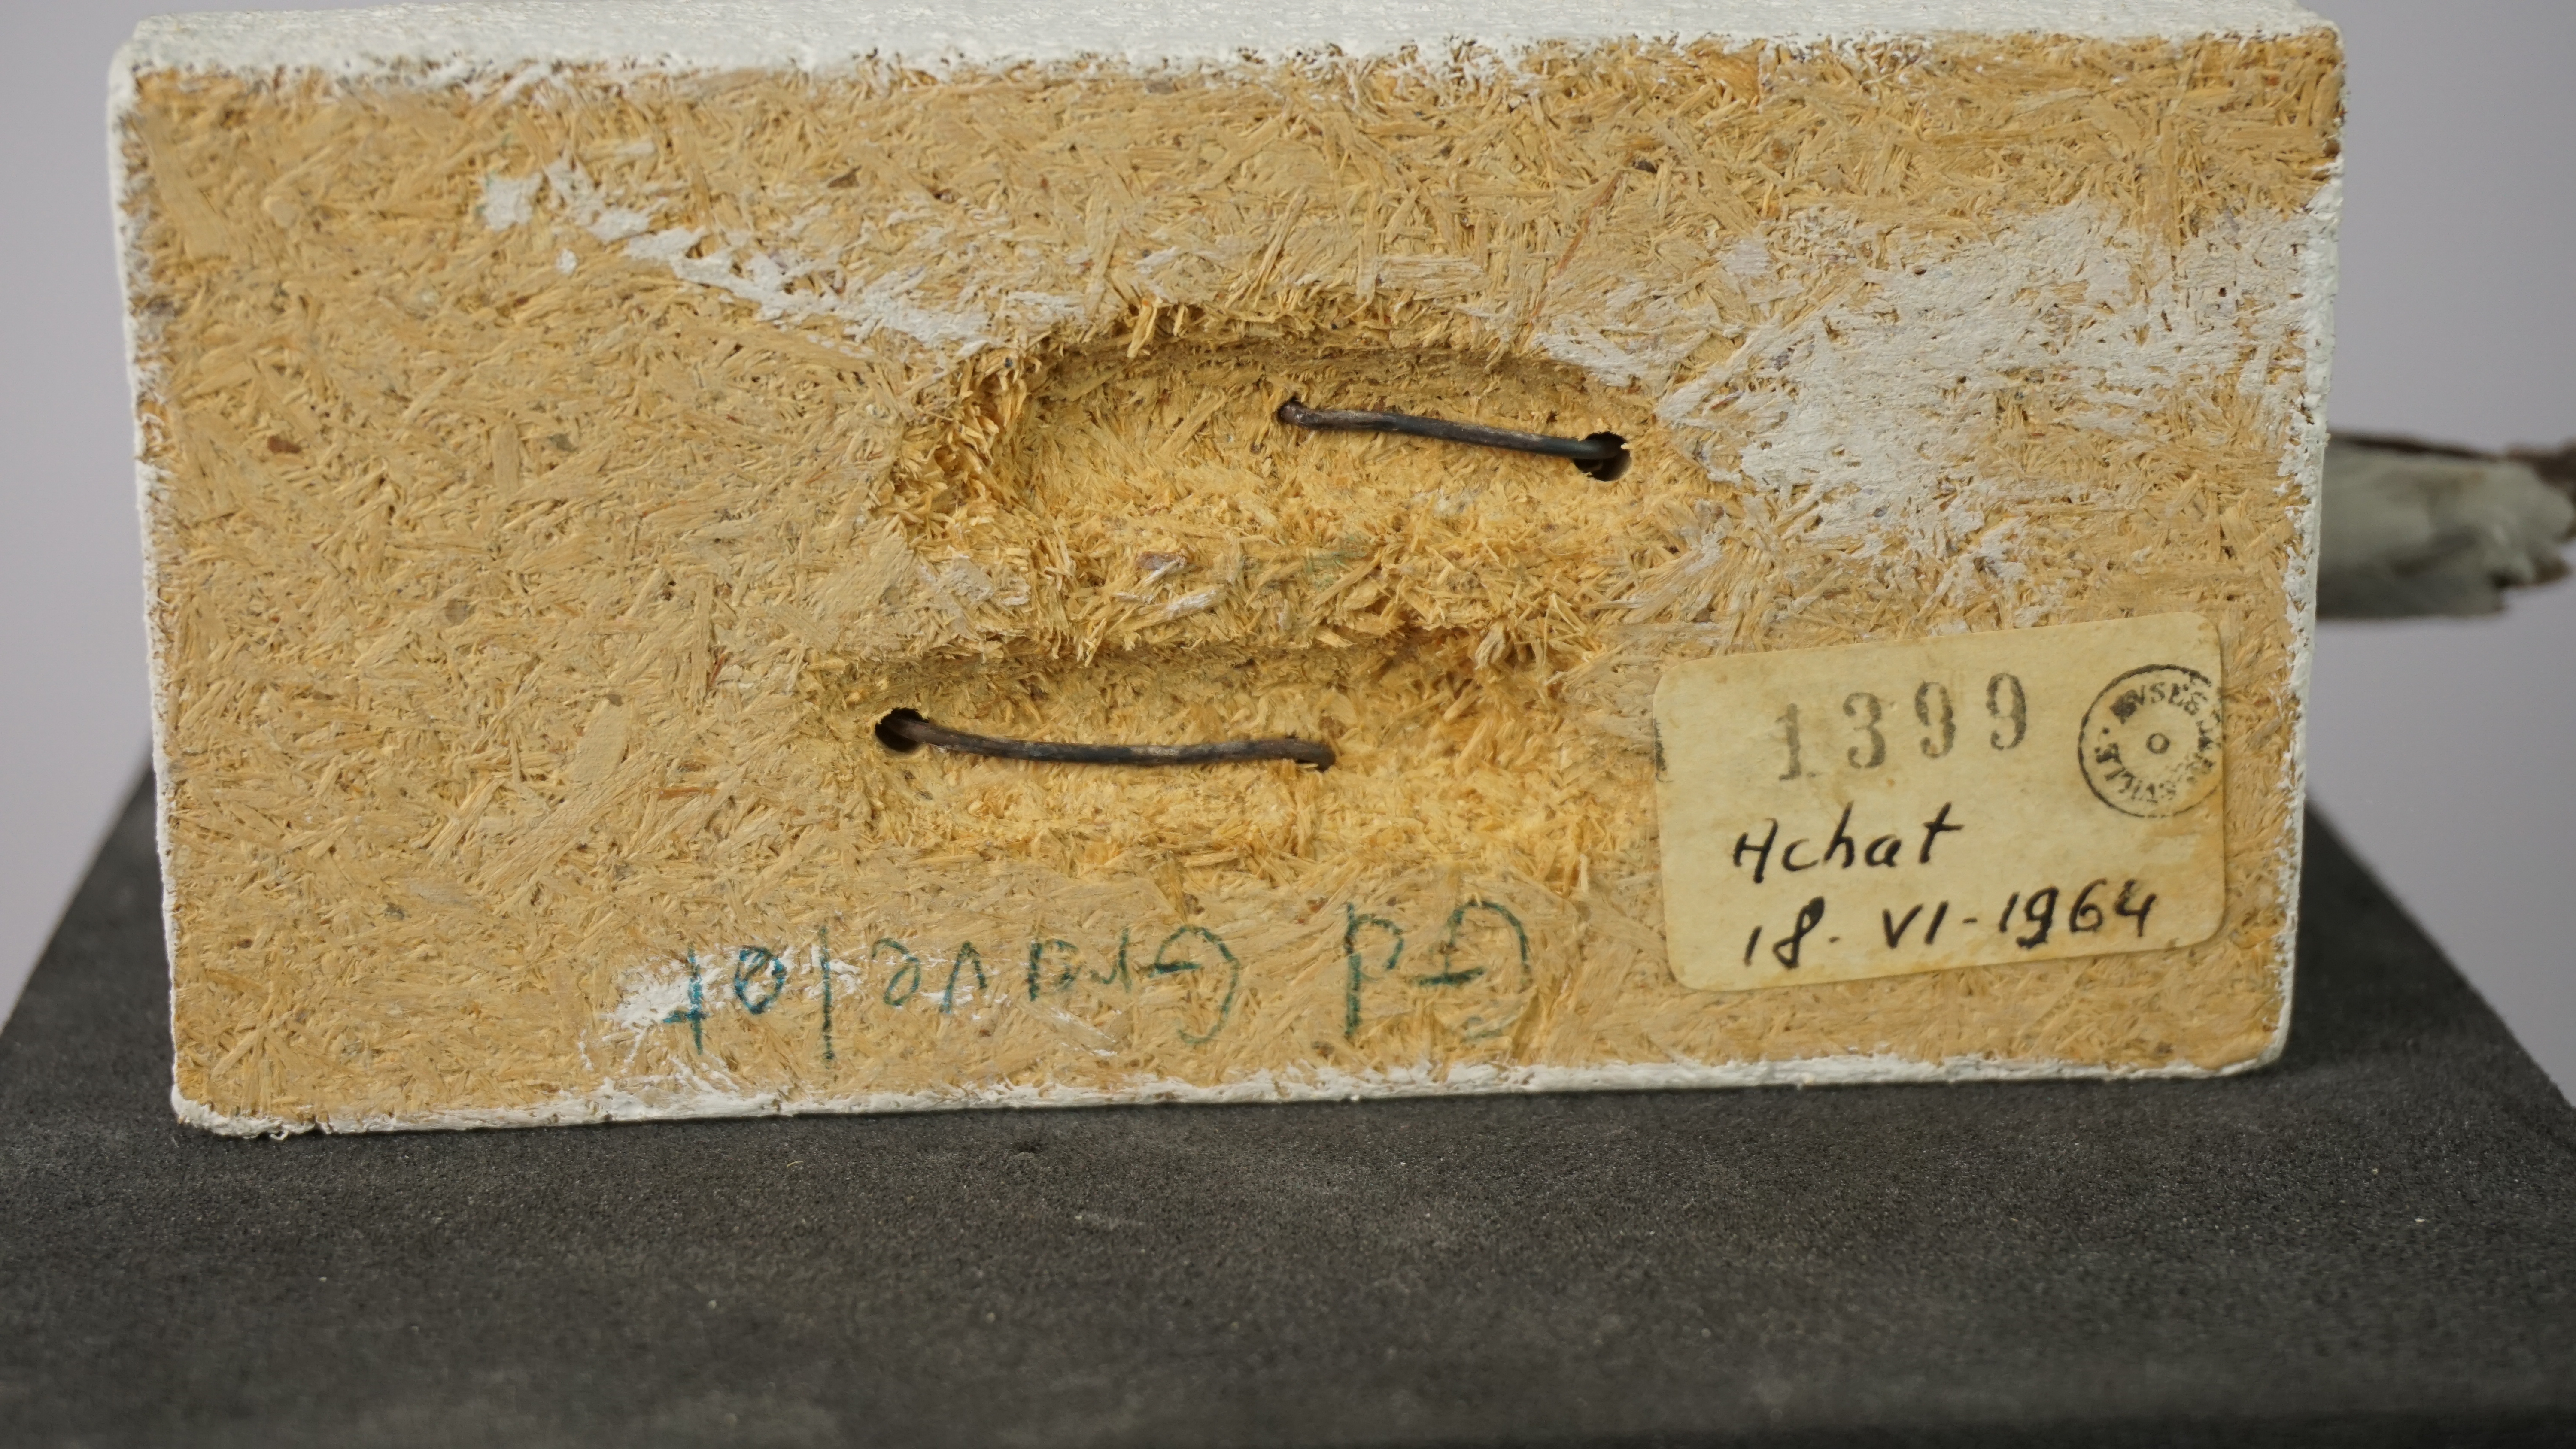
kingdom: Animalia
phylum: Chordata
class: Aves
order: Charadriiformes
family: Charadriidae
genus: Charadrius
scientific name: Charadrius hiaticula
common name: Common ringed plover
